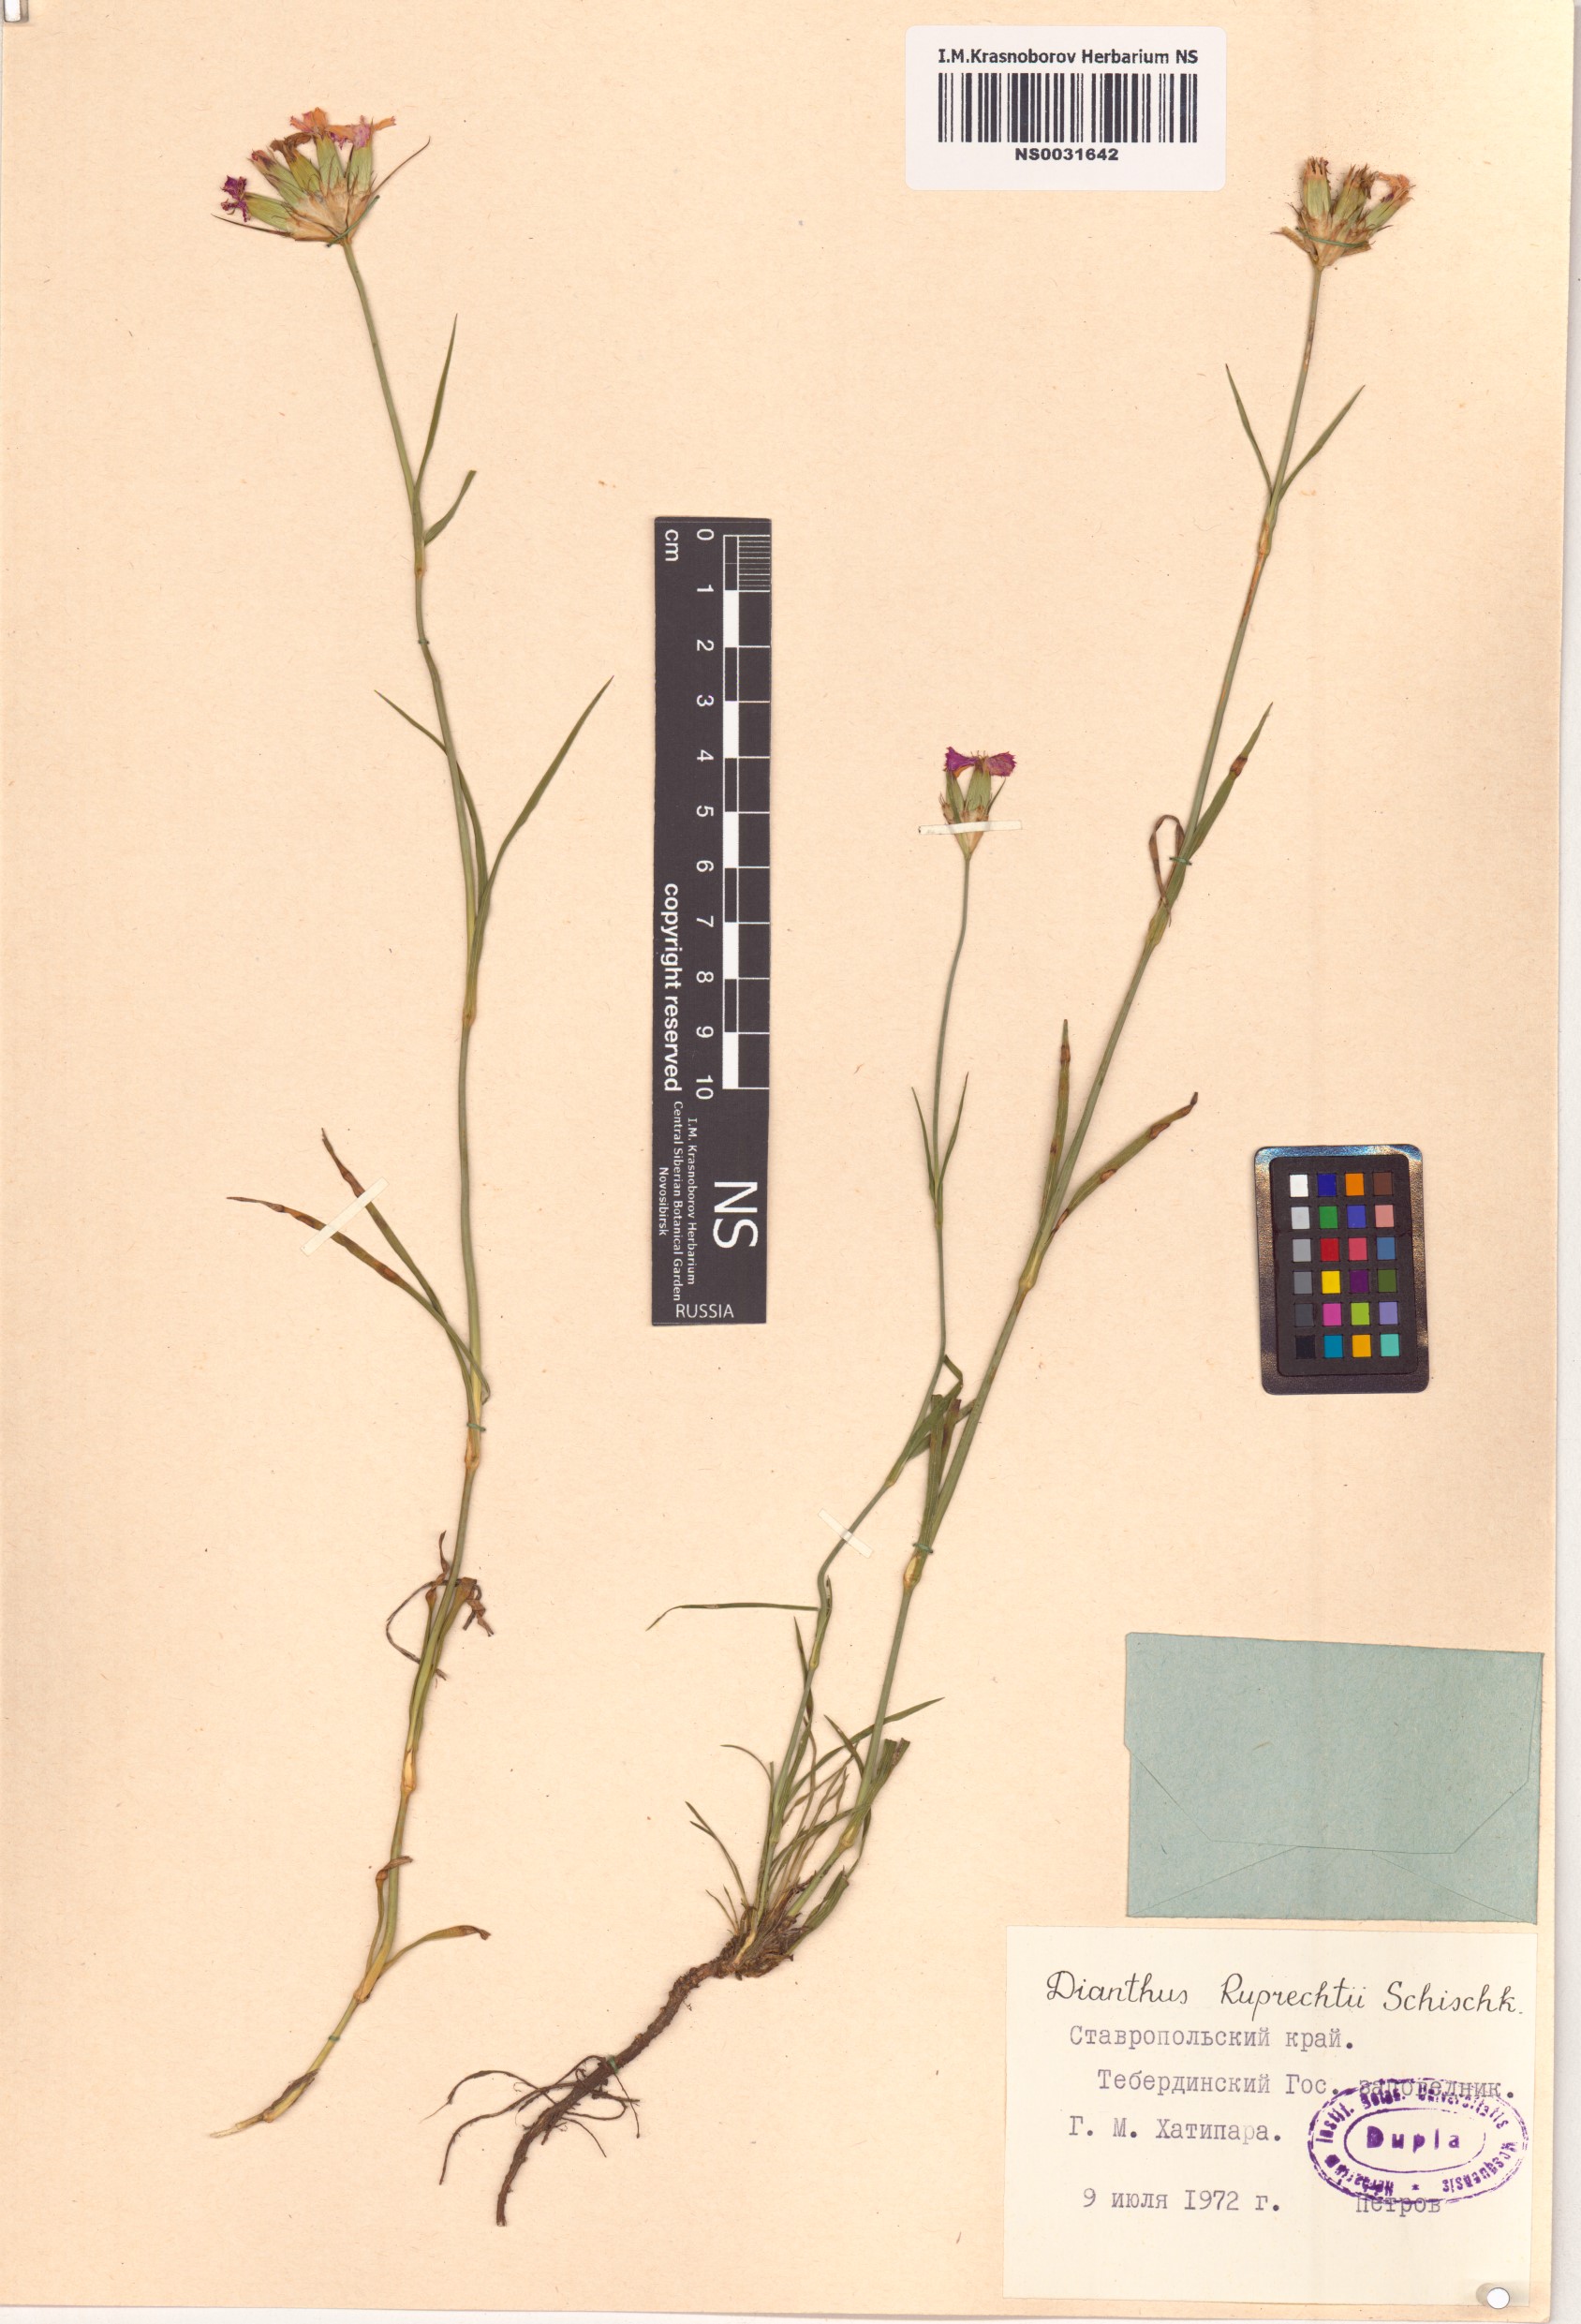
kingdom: Plantae
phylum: Tracheophyta
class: Magnoliopsida
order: Caryophyllales
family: Caryophyllaceae
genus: Dianthus
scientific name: Dianthus ruprechtii
